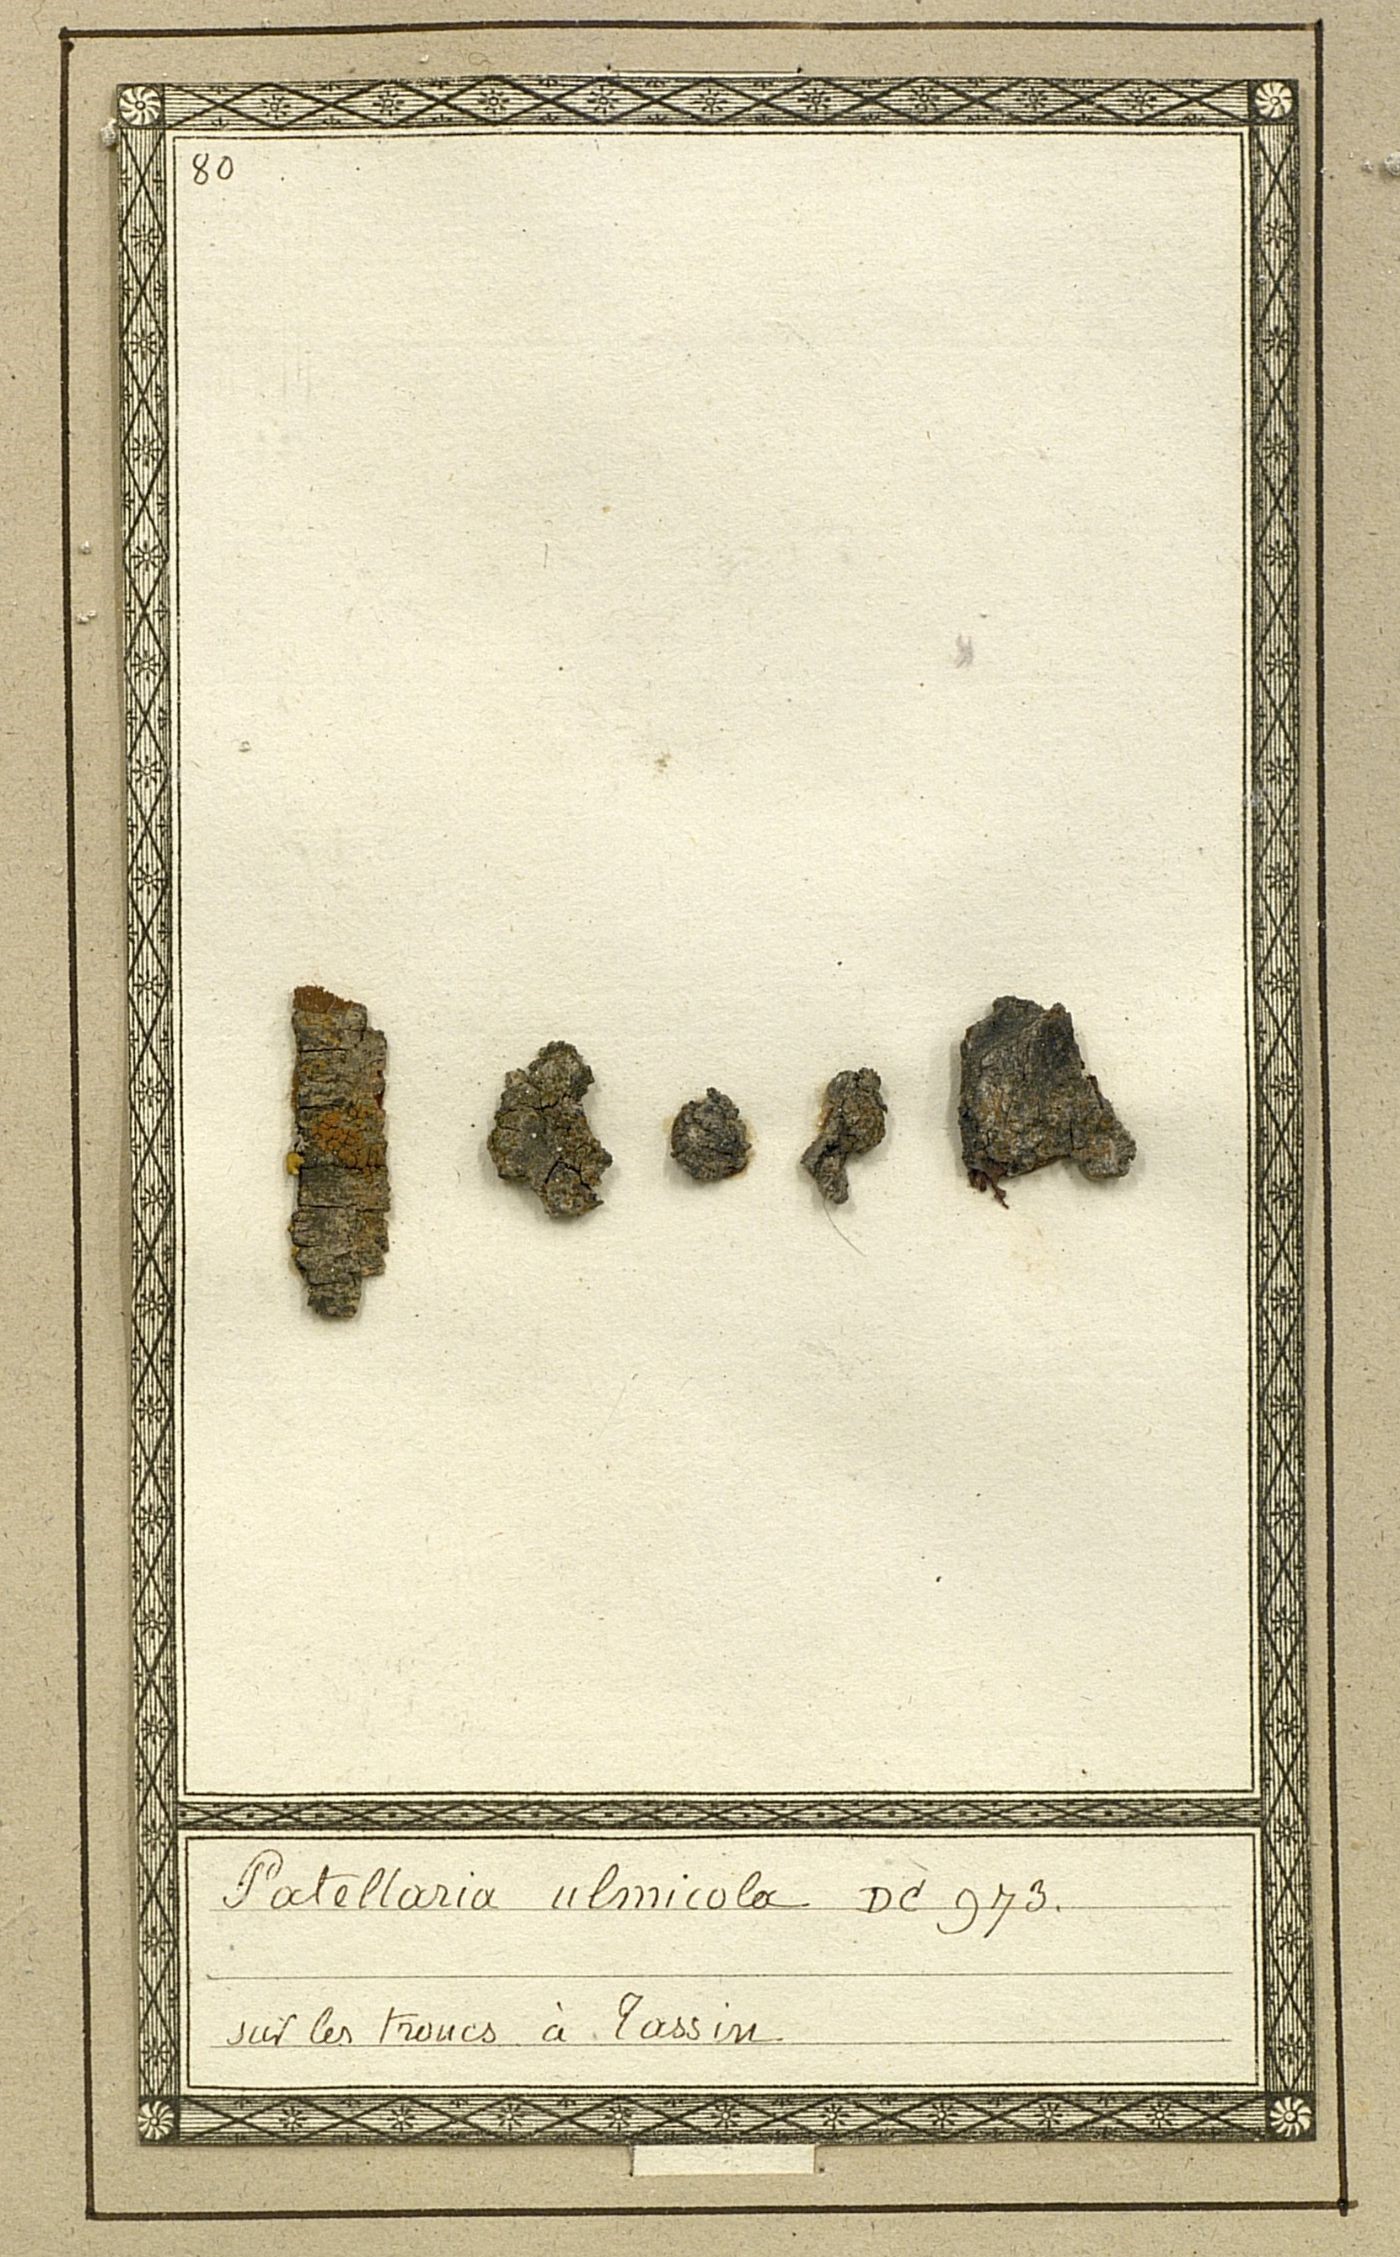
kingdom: Fungi
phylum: Ascomycota
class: Lecanoromycetes
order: Teloschistales
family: Teloschistaceae
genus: Cerothallia
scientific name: Cerothallia luteoalba
